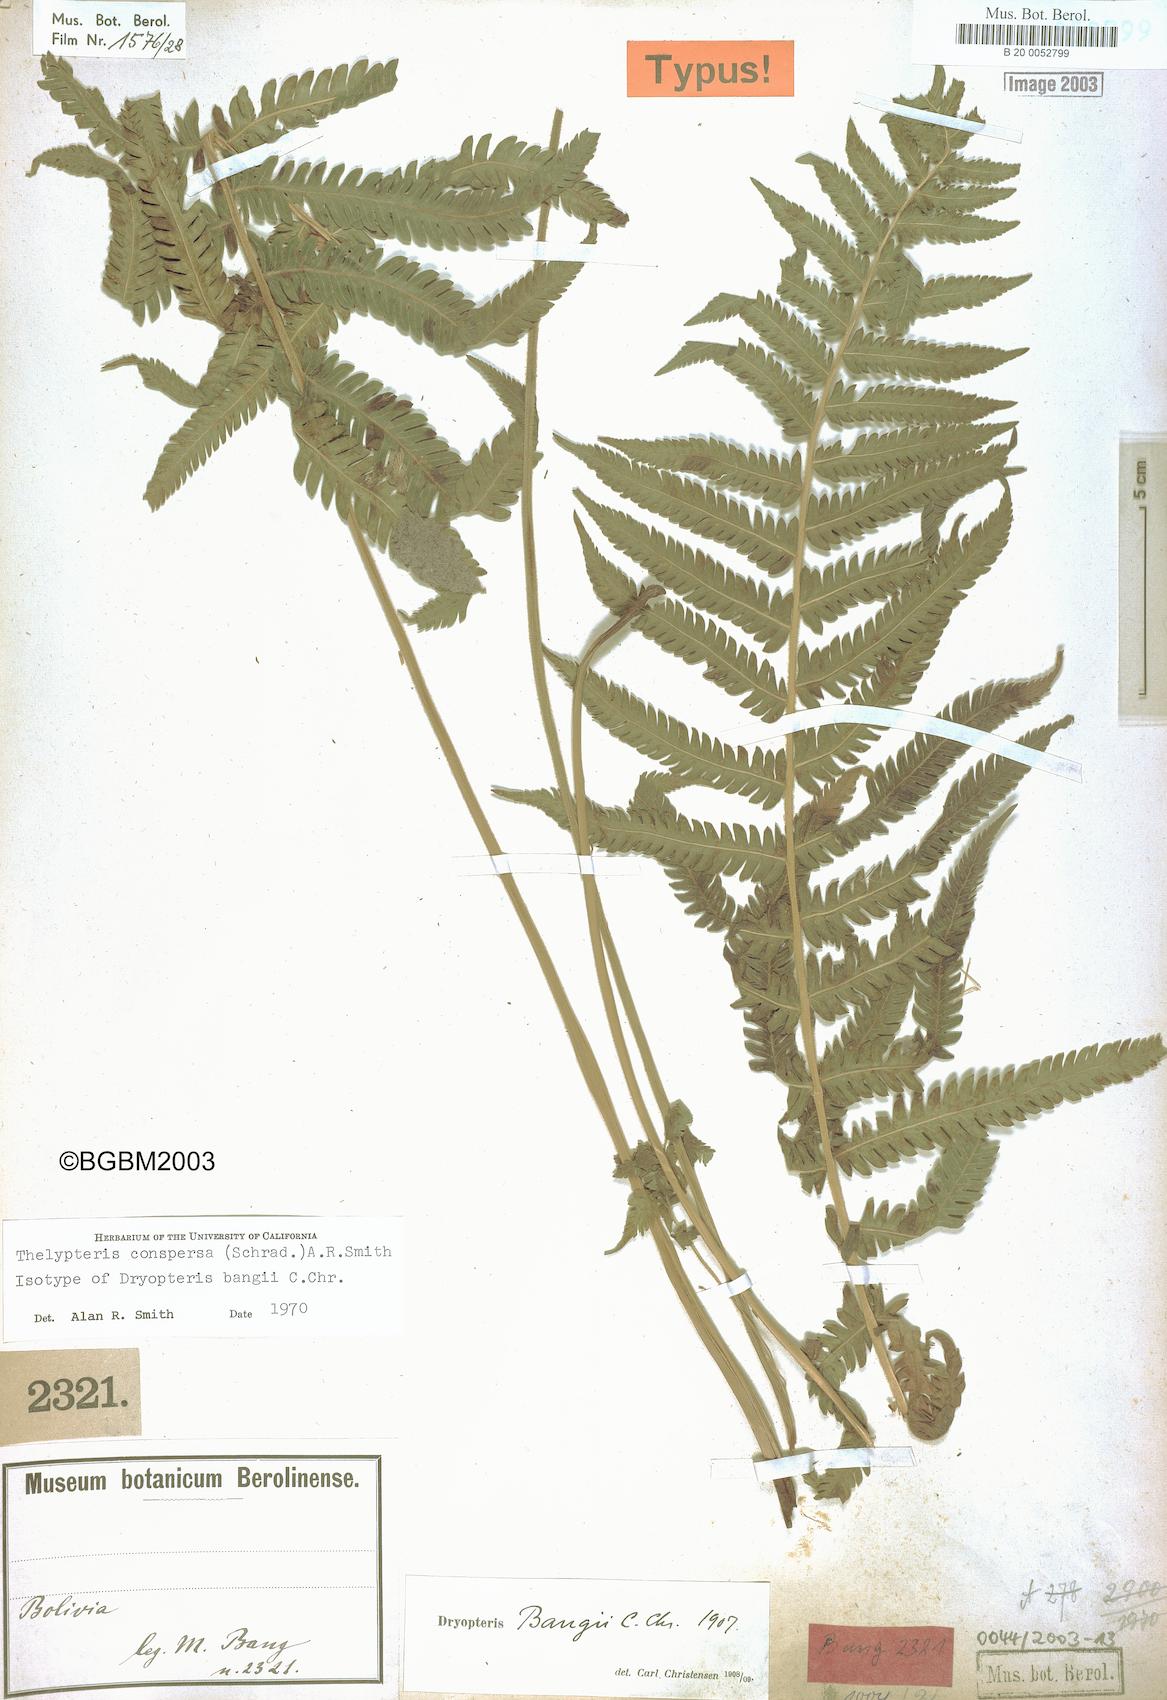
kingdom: Plantae
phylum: Tracheophyta
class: Polypodiopsida
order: Polypodiales
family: Thelypteridaceae
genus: Christella
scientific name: Christella conspersa
